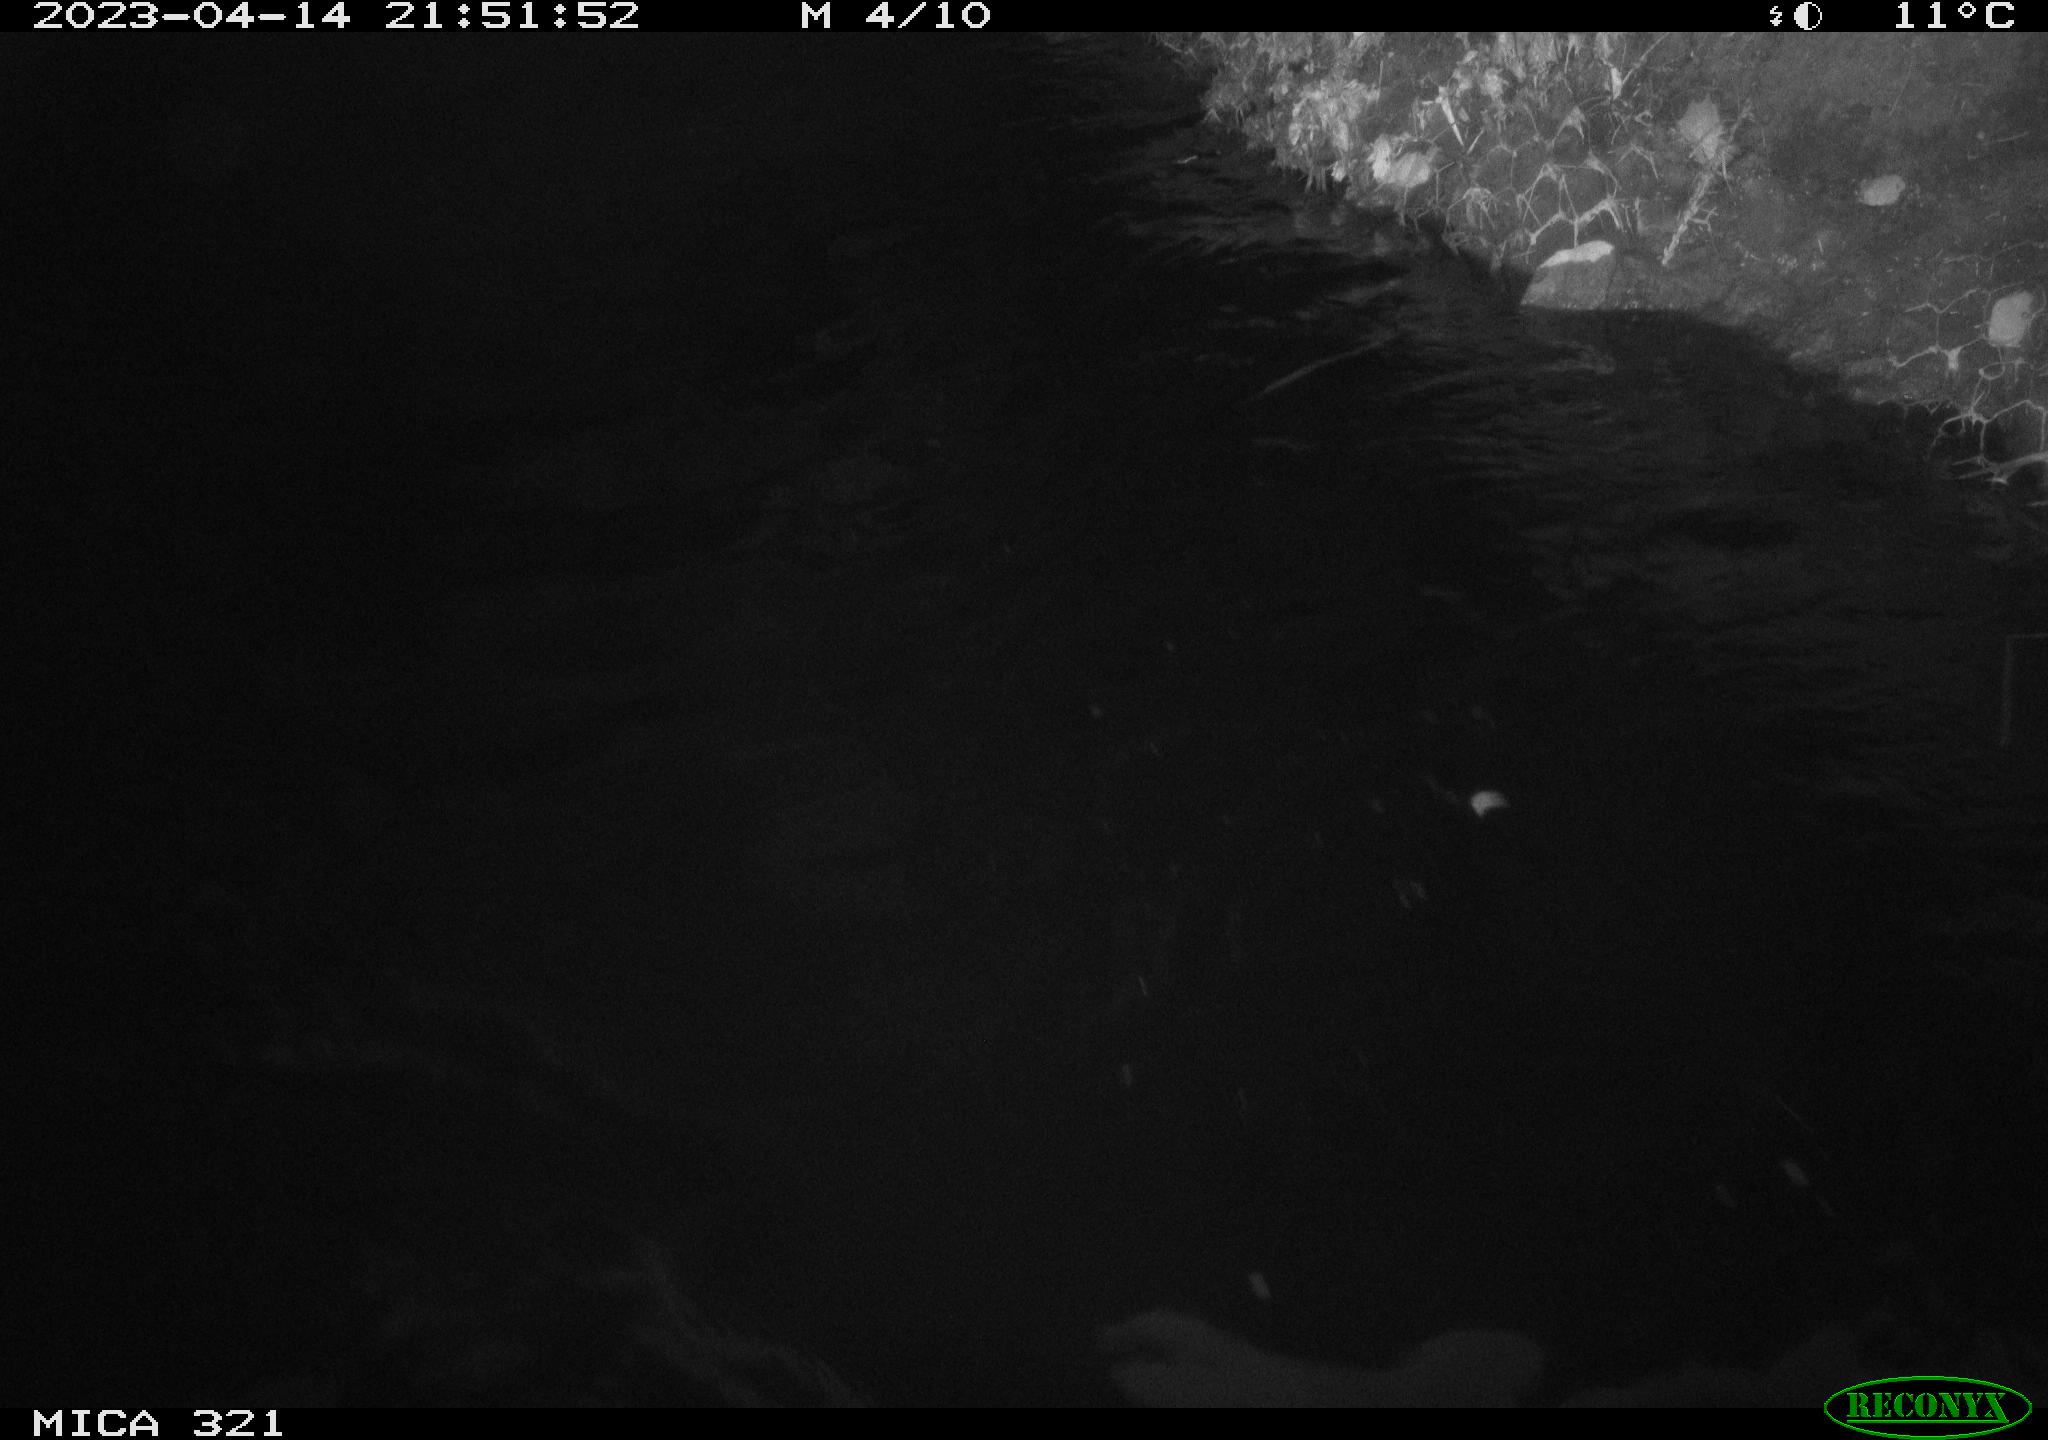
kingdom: Animalia
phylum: Chordata
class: Mammalia
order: Rodentia
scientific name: Rodentia
